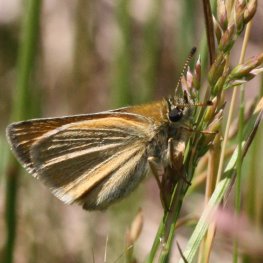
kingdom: Animalia
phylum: Arthropoda
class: Insecta
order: Lepidoptera
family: Hesperiidae
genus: Thymelicus
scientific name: Thymelicus lineola
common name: European Skipper
